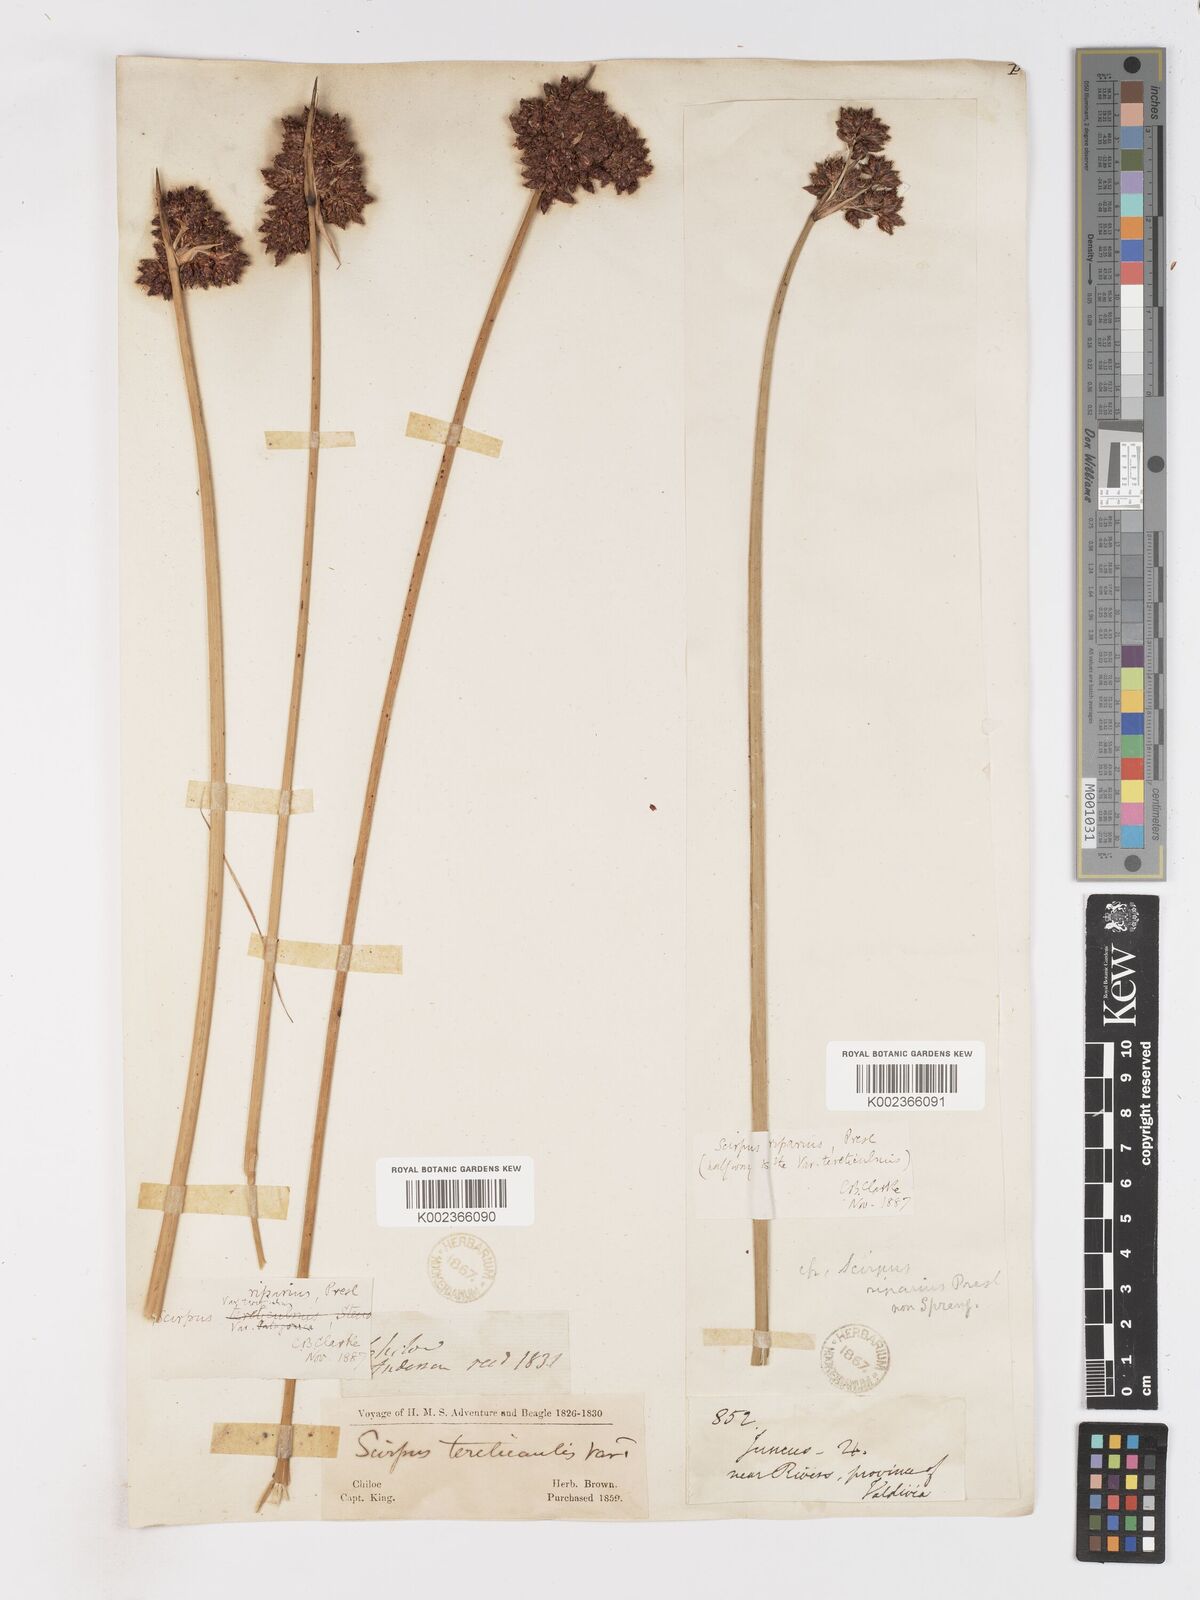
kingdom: Plantae
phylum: Tracheophyta
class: Liliopsida
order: Poales
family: Cyperaceae
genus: Schoenoplectus
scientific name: Schoenoplectus californicus
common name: California bulrush
